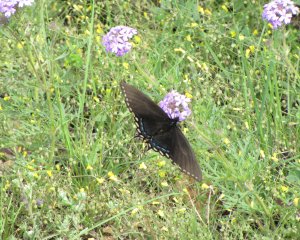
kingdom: Animalia
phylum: Arthropoda
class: Insecta
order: Lepidoptera
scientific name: Lepidoptera
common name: Butterflies
